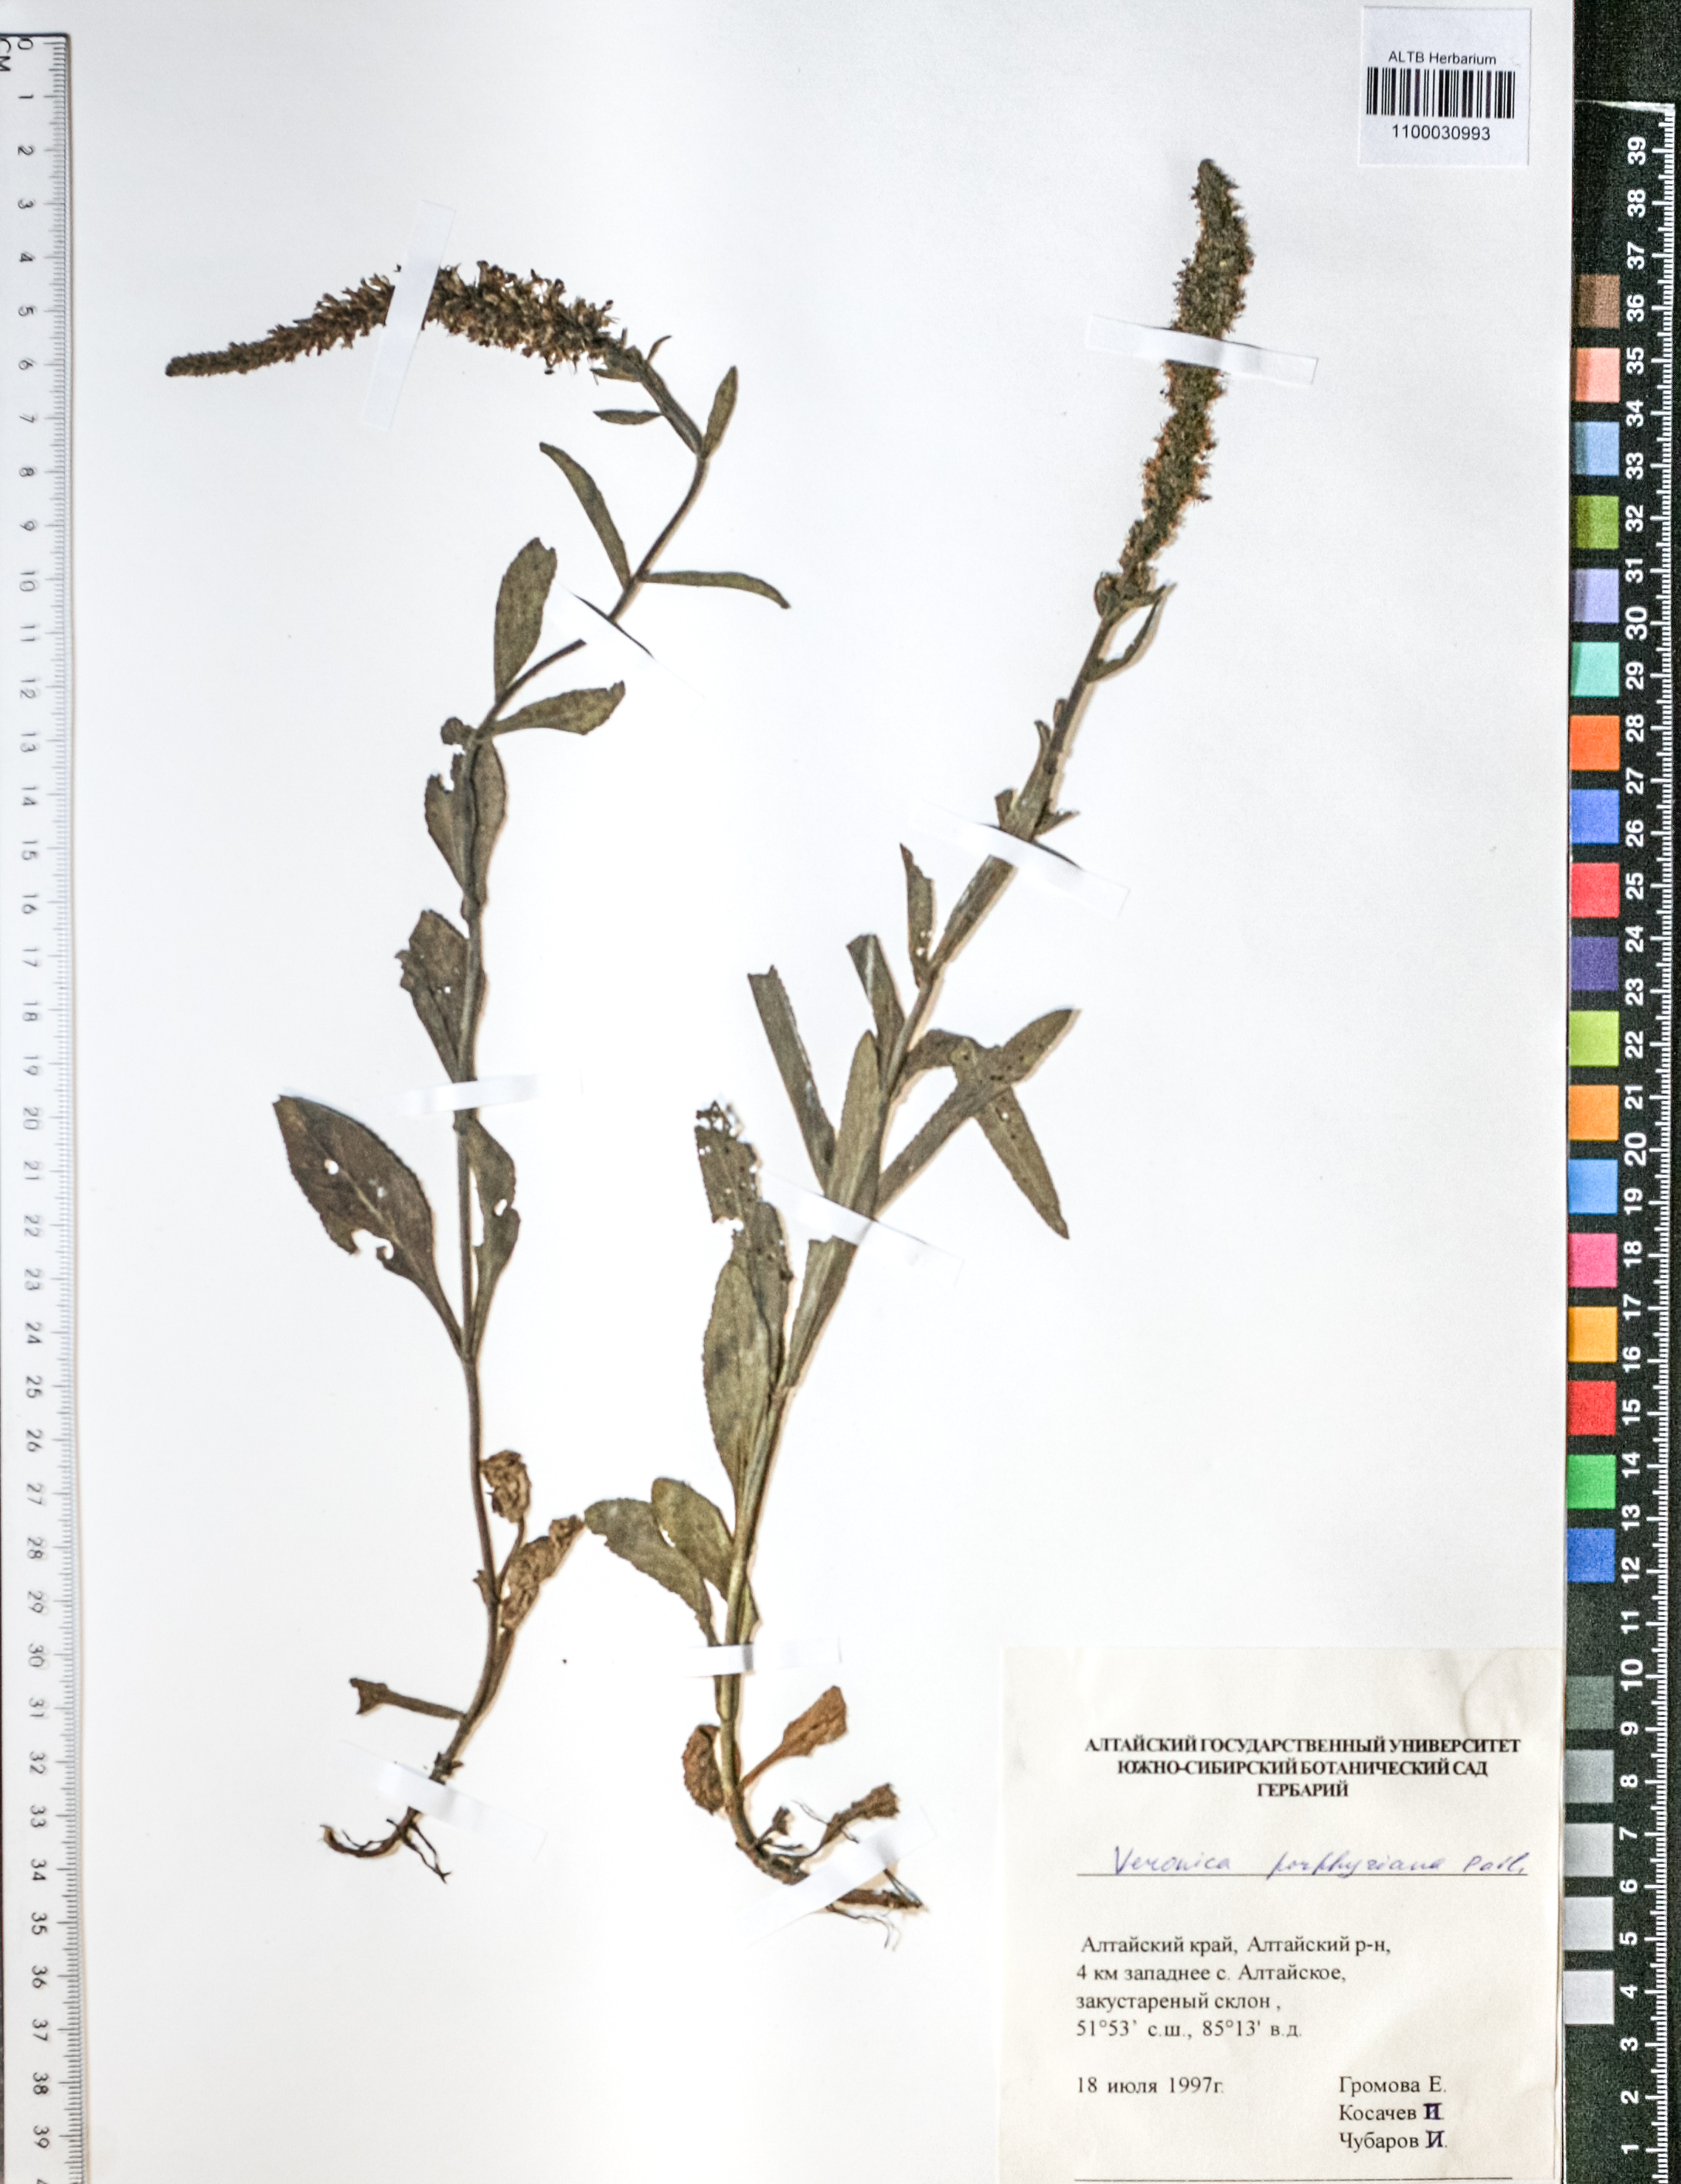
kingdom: Plantae
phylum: Tracheophyta
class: Magnoliopsida
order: Lamiales
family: Plantaginaceae
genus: Veronica
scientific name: Veronica porphyriana
